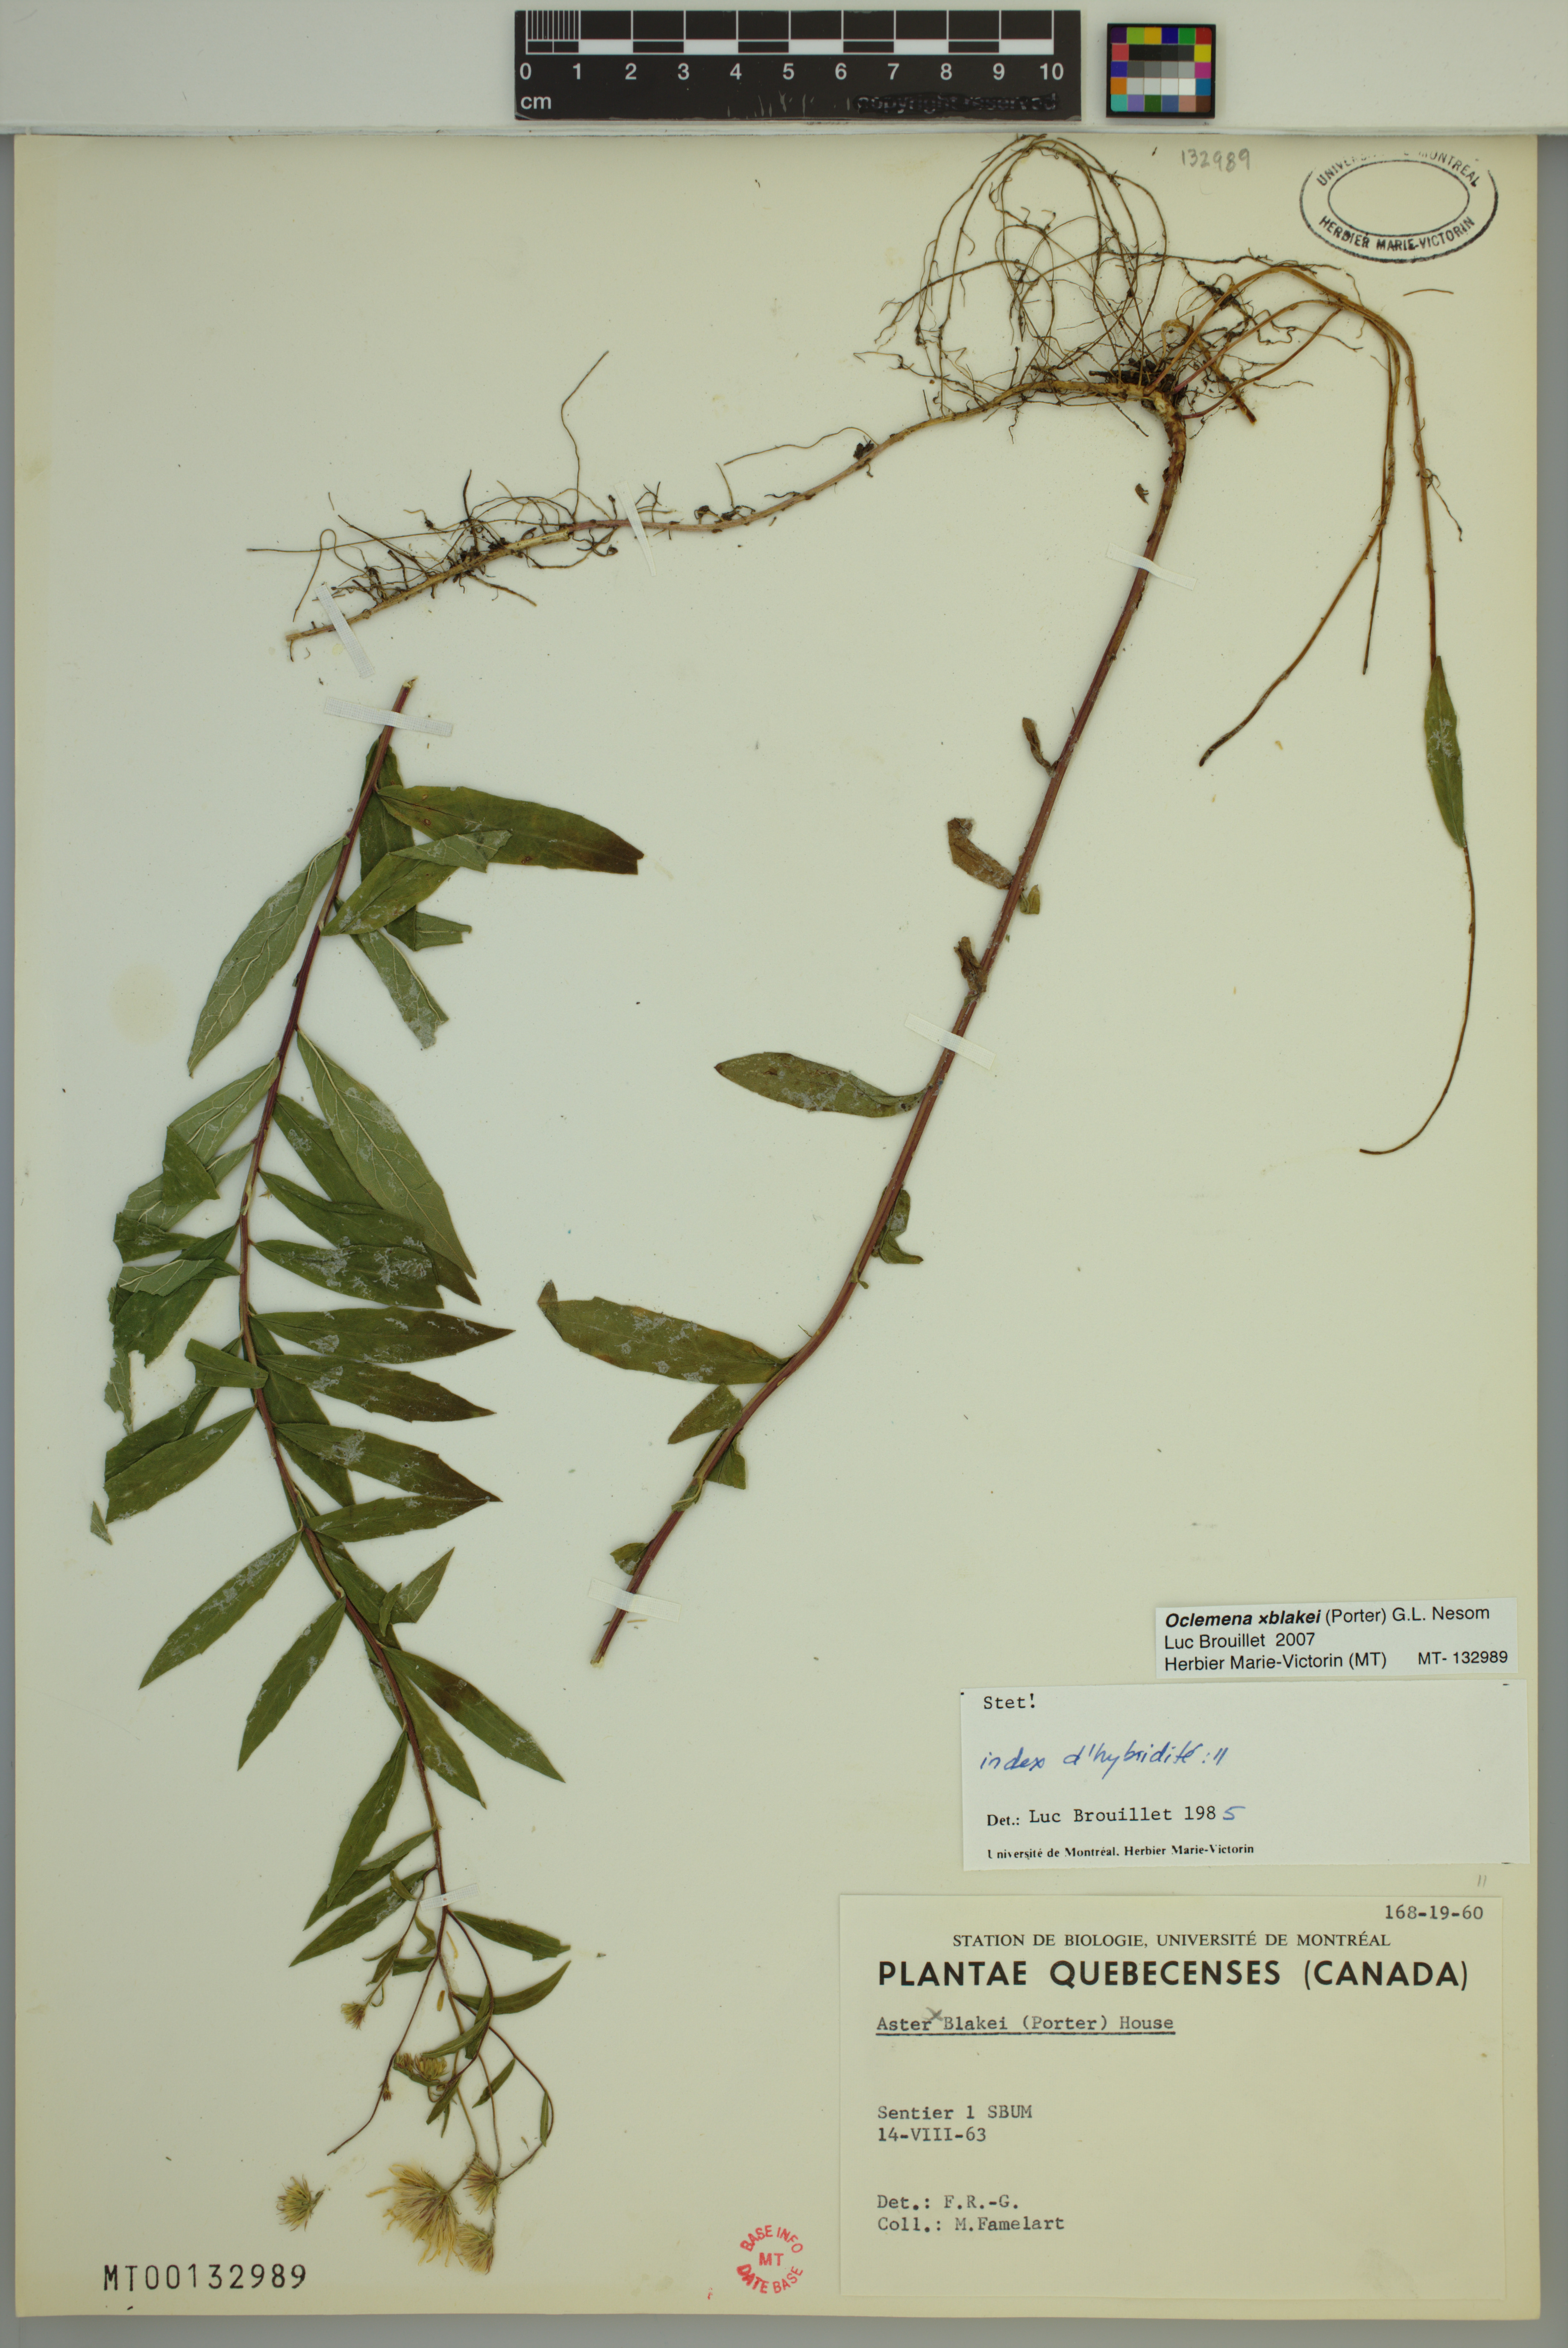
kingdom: Plantae
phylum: Tracheophyta
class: Magnoliopsida
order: Asterales
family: Asteraceae
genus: Oclemena
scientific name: Oclemena blakei
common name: Blake's aster
